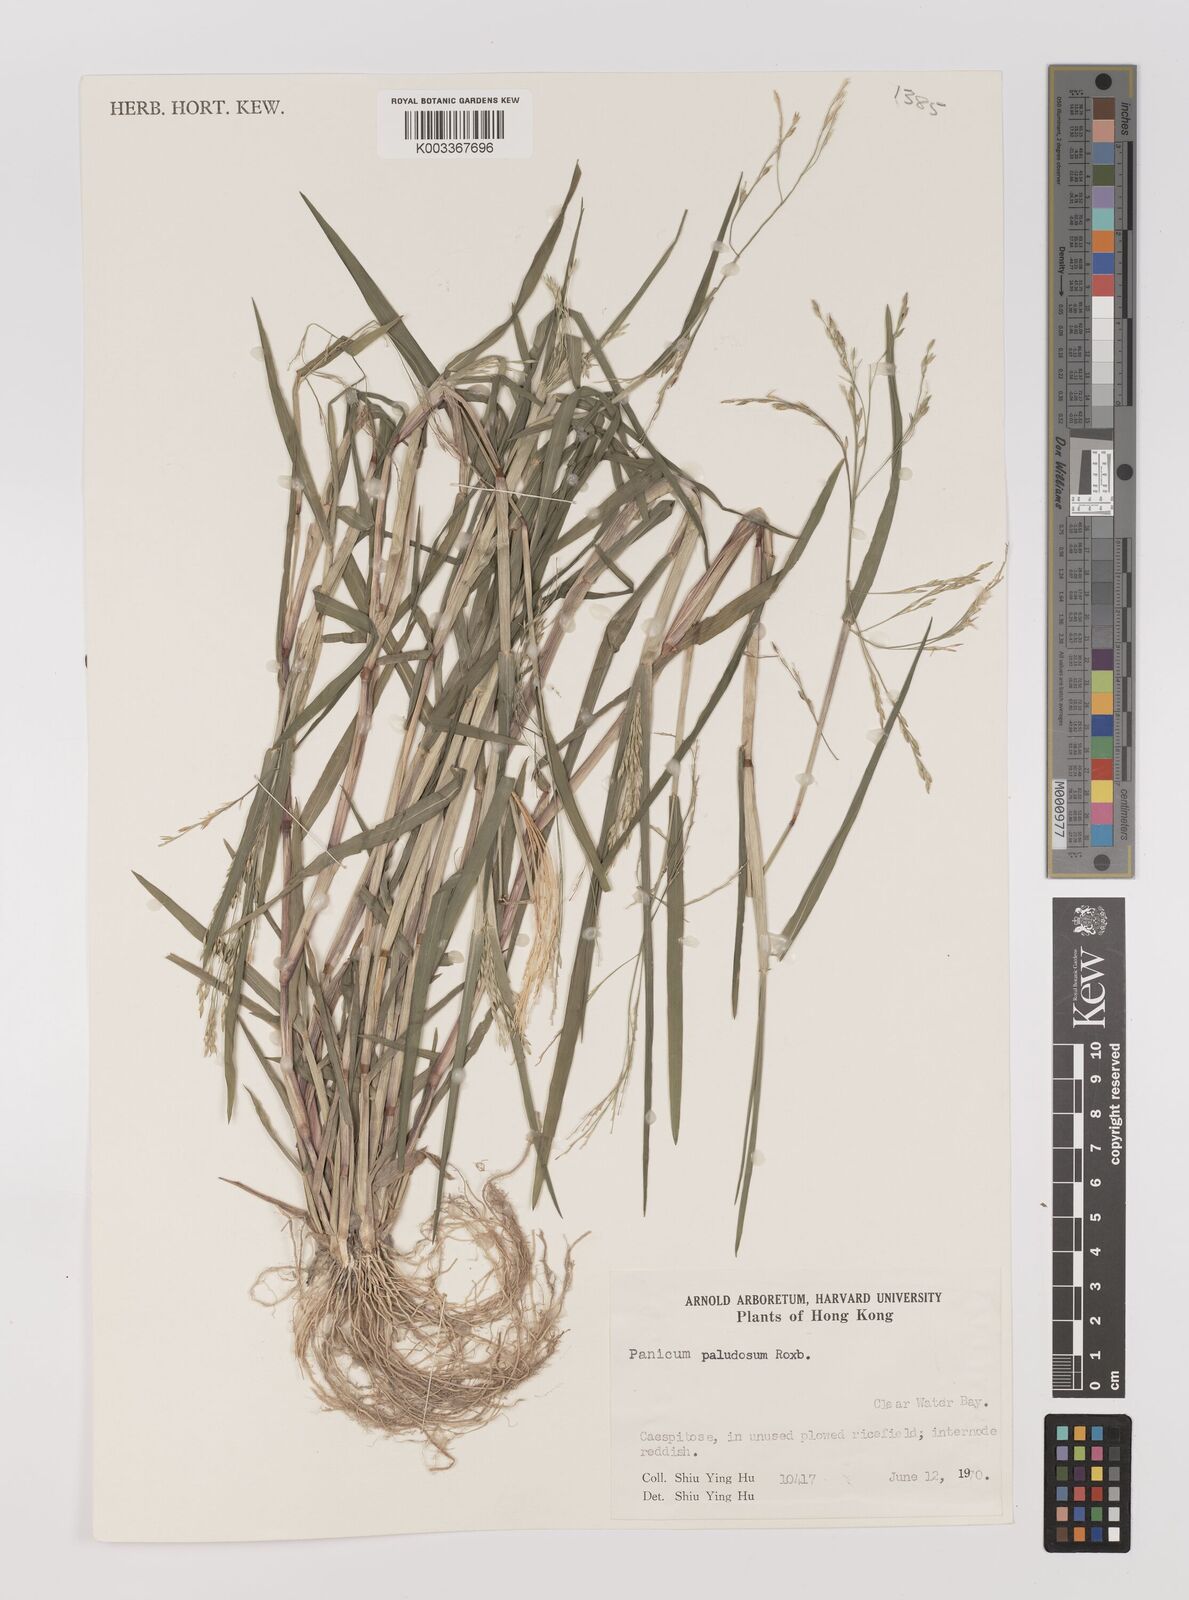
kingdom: Plantae
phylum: Tracheophyta
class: Liliopsida
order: Poales
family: Poaceae
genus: Panicum
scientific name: Panicum dichotomiflorum
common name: Autumn millet
